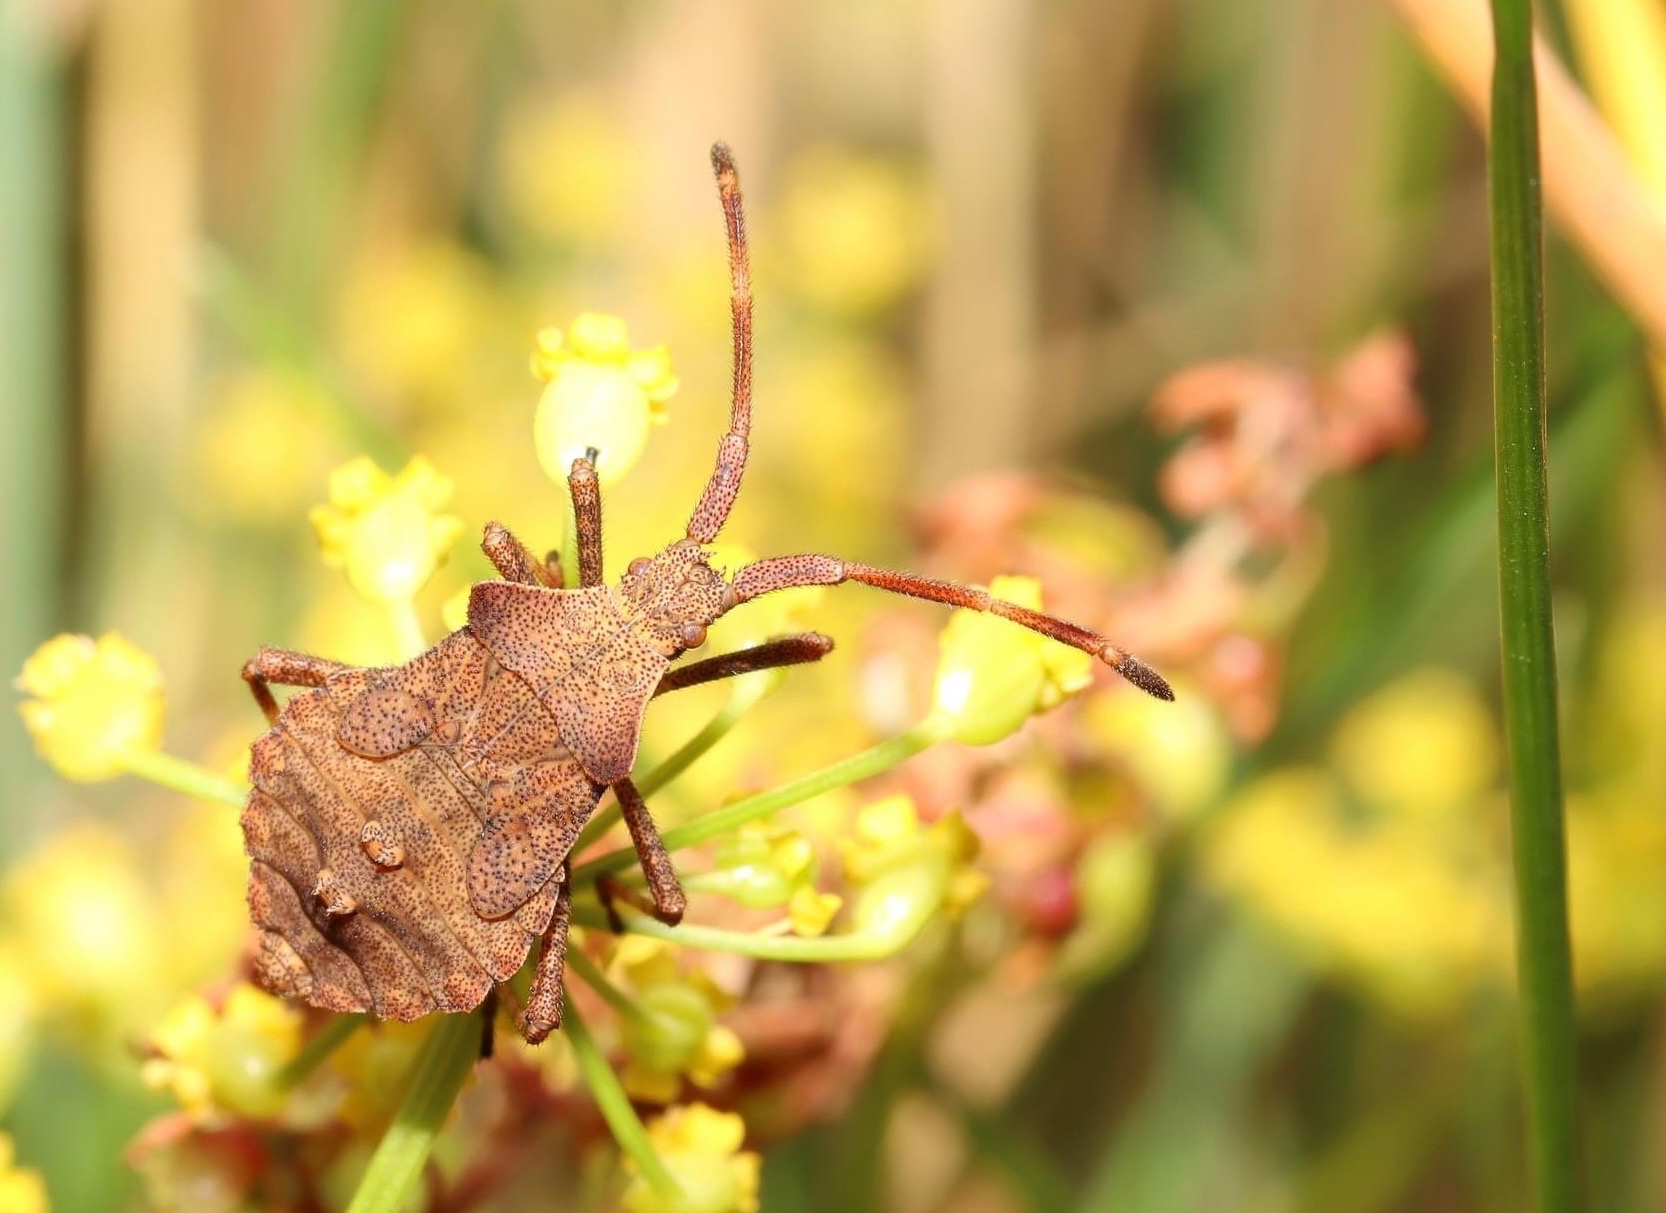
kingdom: Animalia
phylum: Arthropoda
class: Insecta
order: Hemiptera
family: Coreidae
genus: Coreus
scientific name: Coreus marginatus
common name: Skræppetæge
